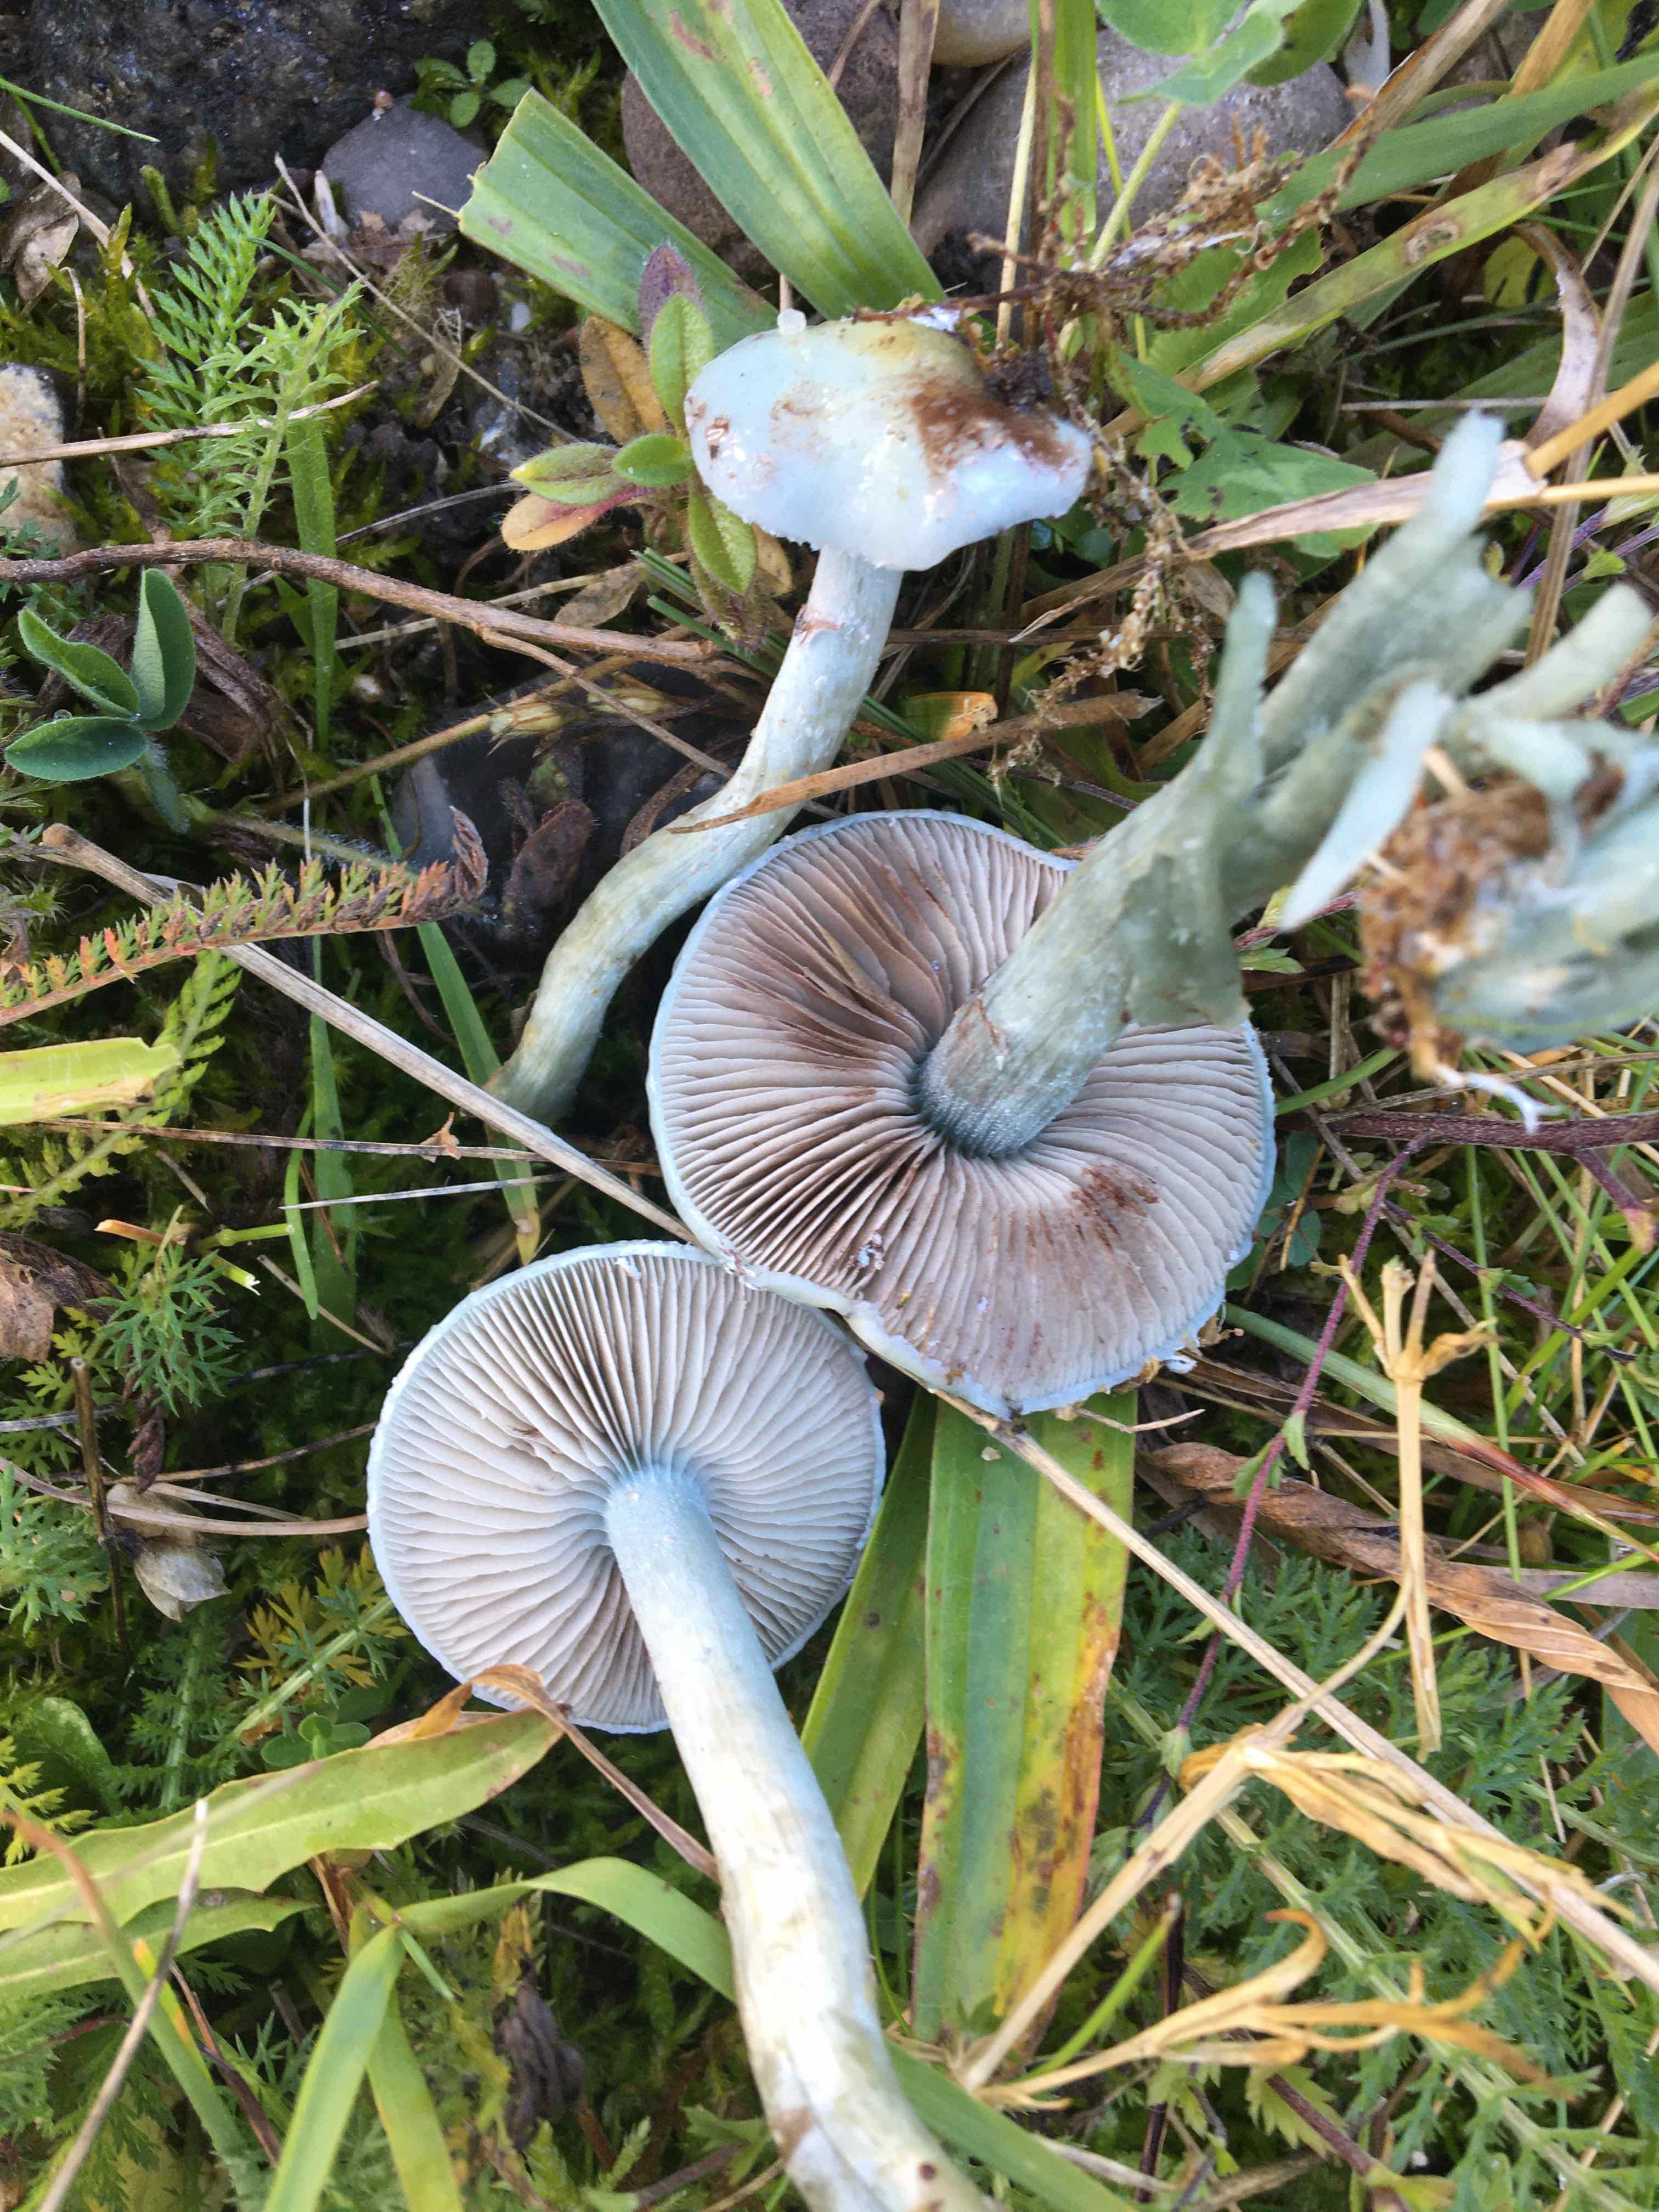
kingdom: Fungi
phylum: Basidiomycota
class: Agaricomycetes
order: Agaricales
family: Strophariaceae
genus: Stropharia
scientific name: Stropharia cyanea
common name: blågrøn bredblad
